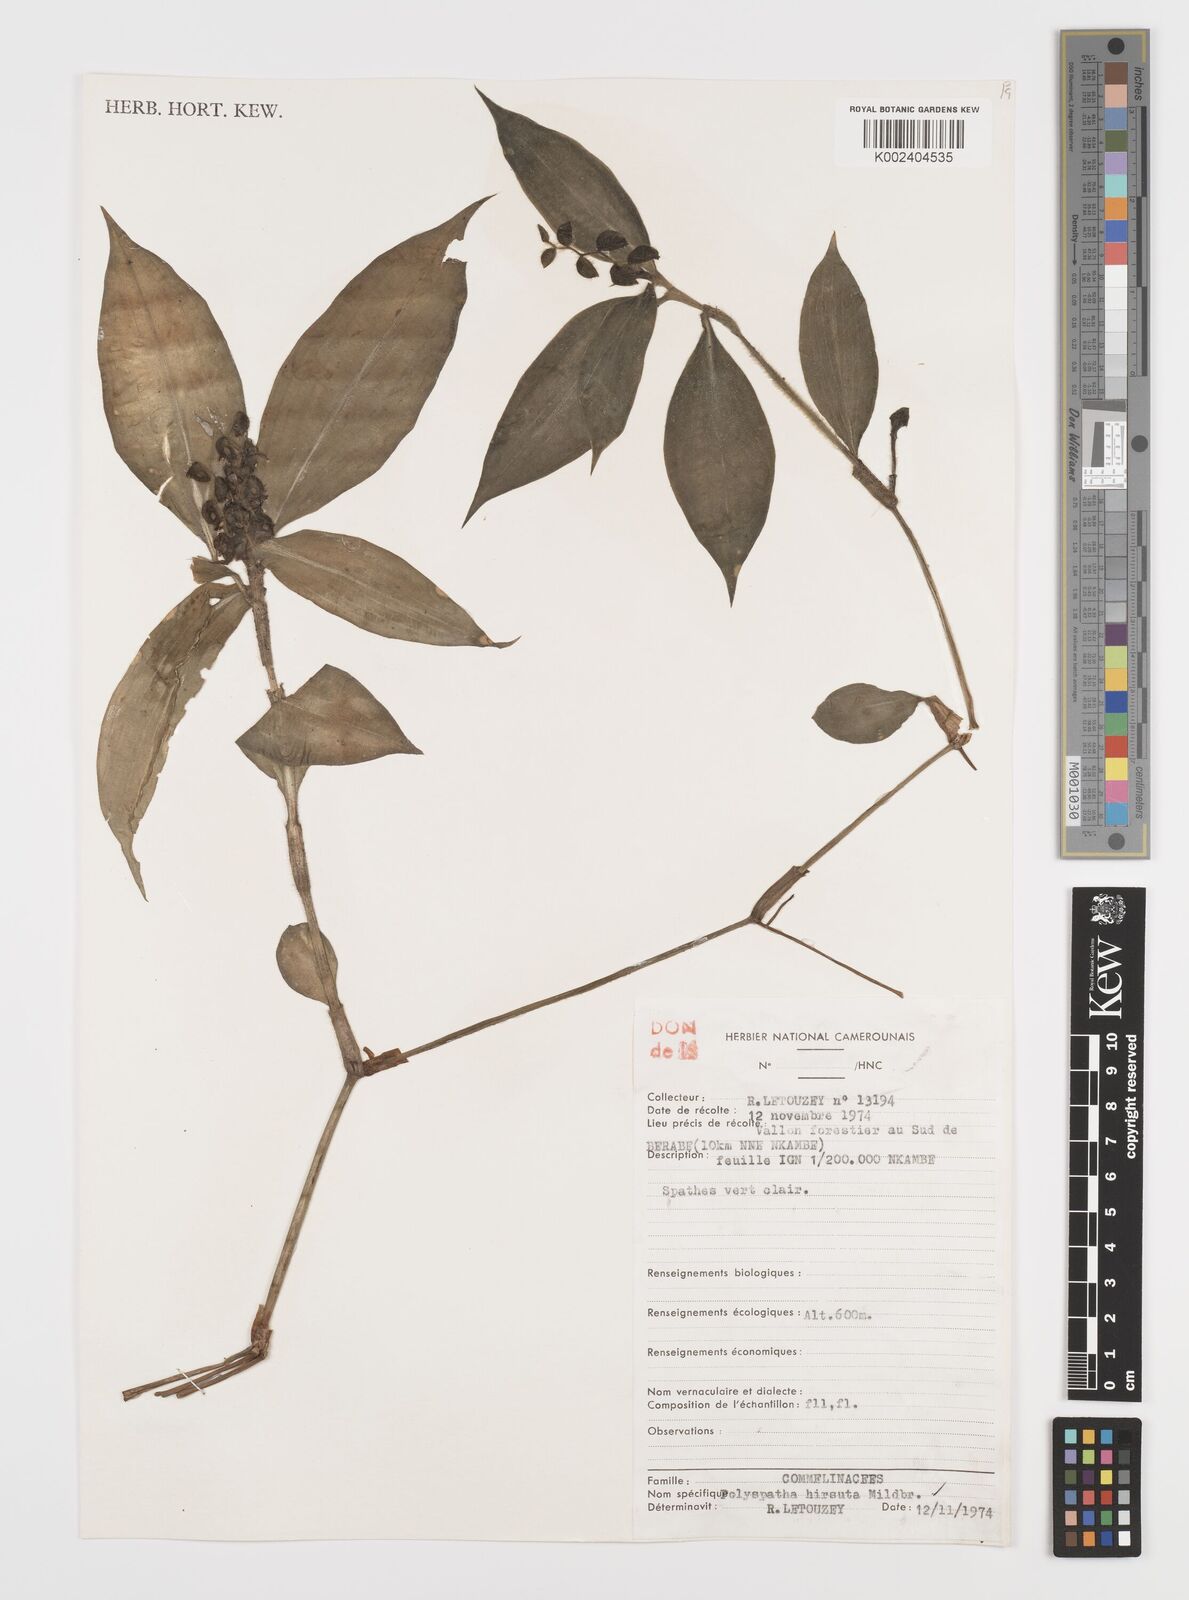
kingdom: Plantae
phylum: Tracheophyta
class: Liliopsida
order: Commelinales
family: Commelinaceae
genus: Polyspatha
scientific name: Polyspatha hirsuta
